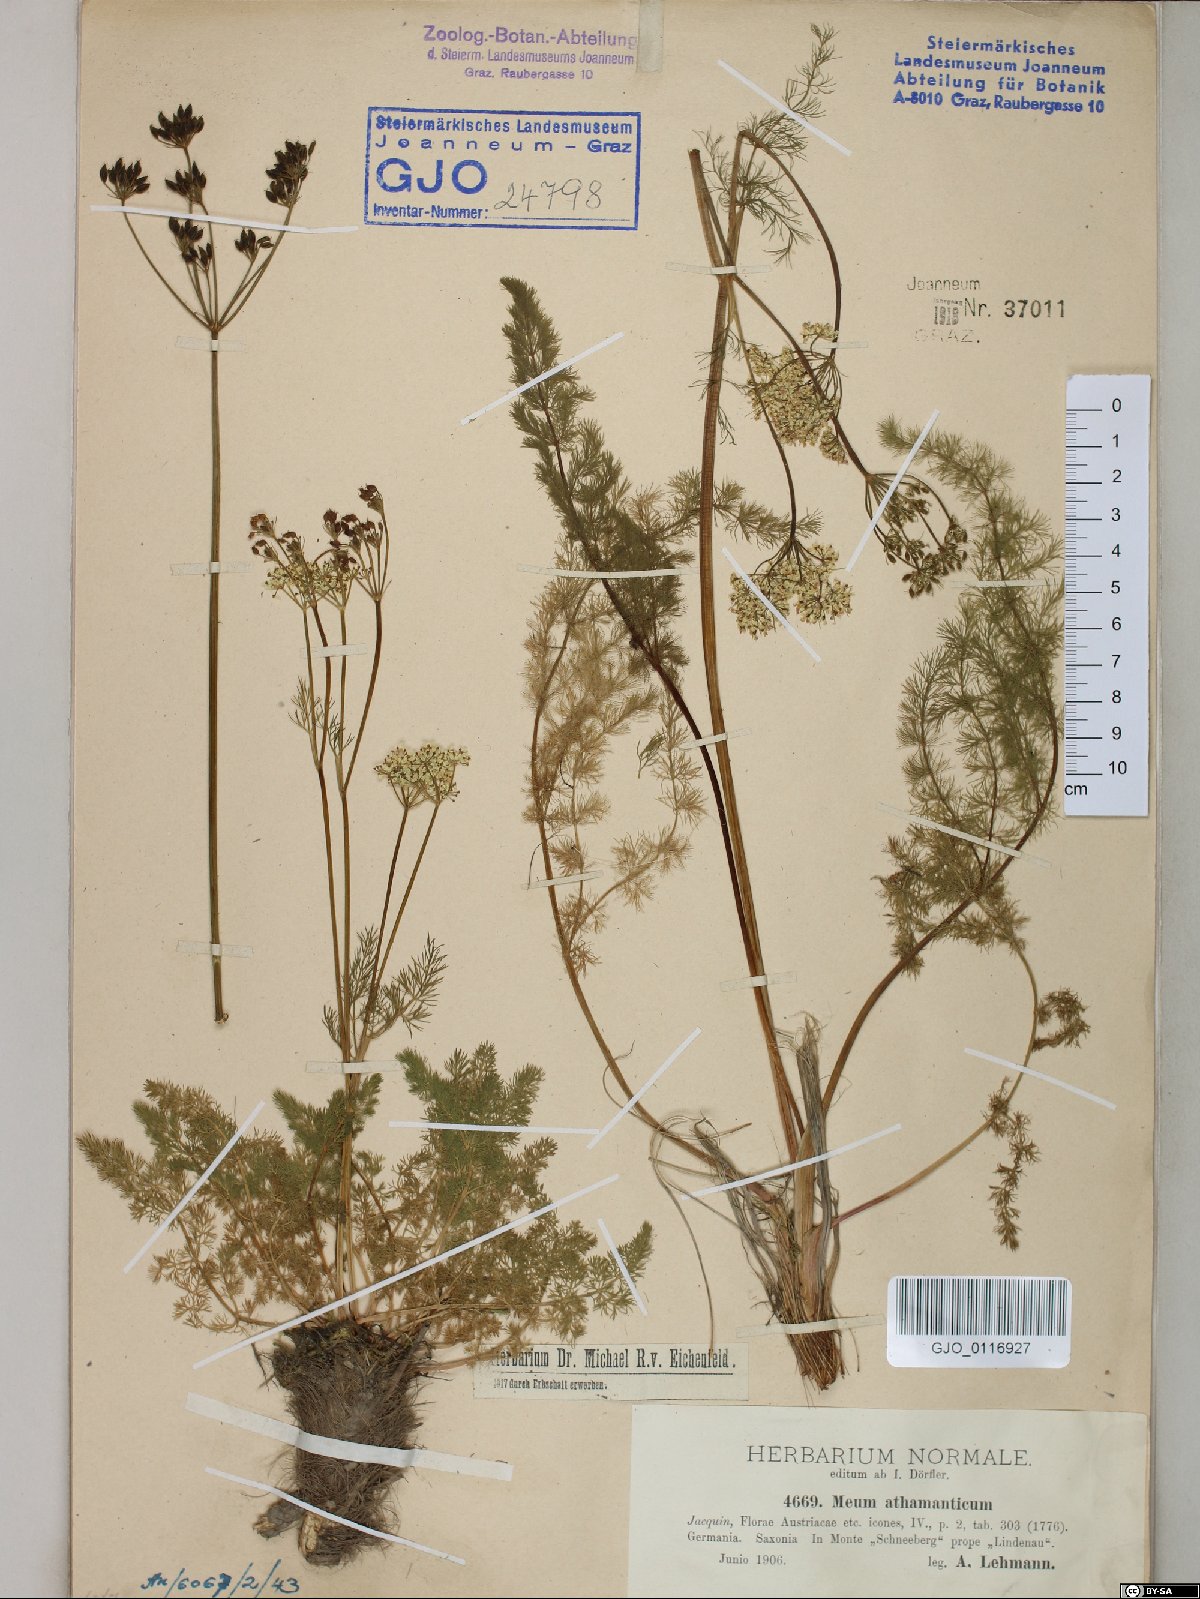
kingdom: Plantae
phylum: Tracheophyta
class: Magnoliopsida
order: Apiales
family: Apiaceae
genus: Meum
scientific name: Meum athamanticum
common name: Spignel
